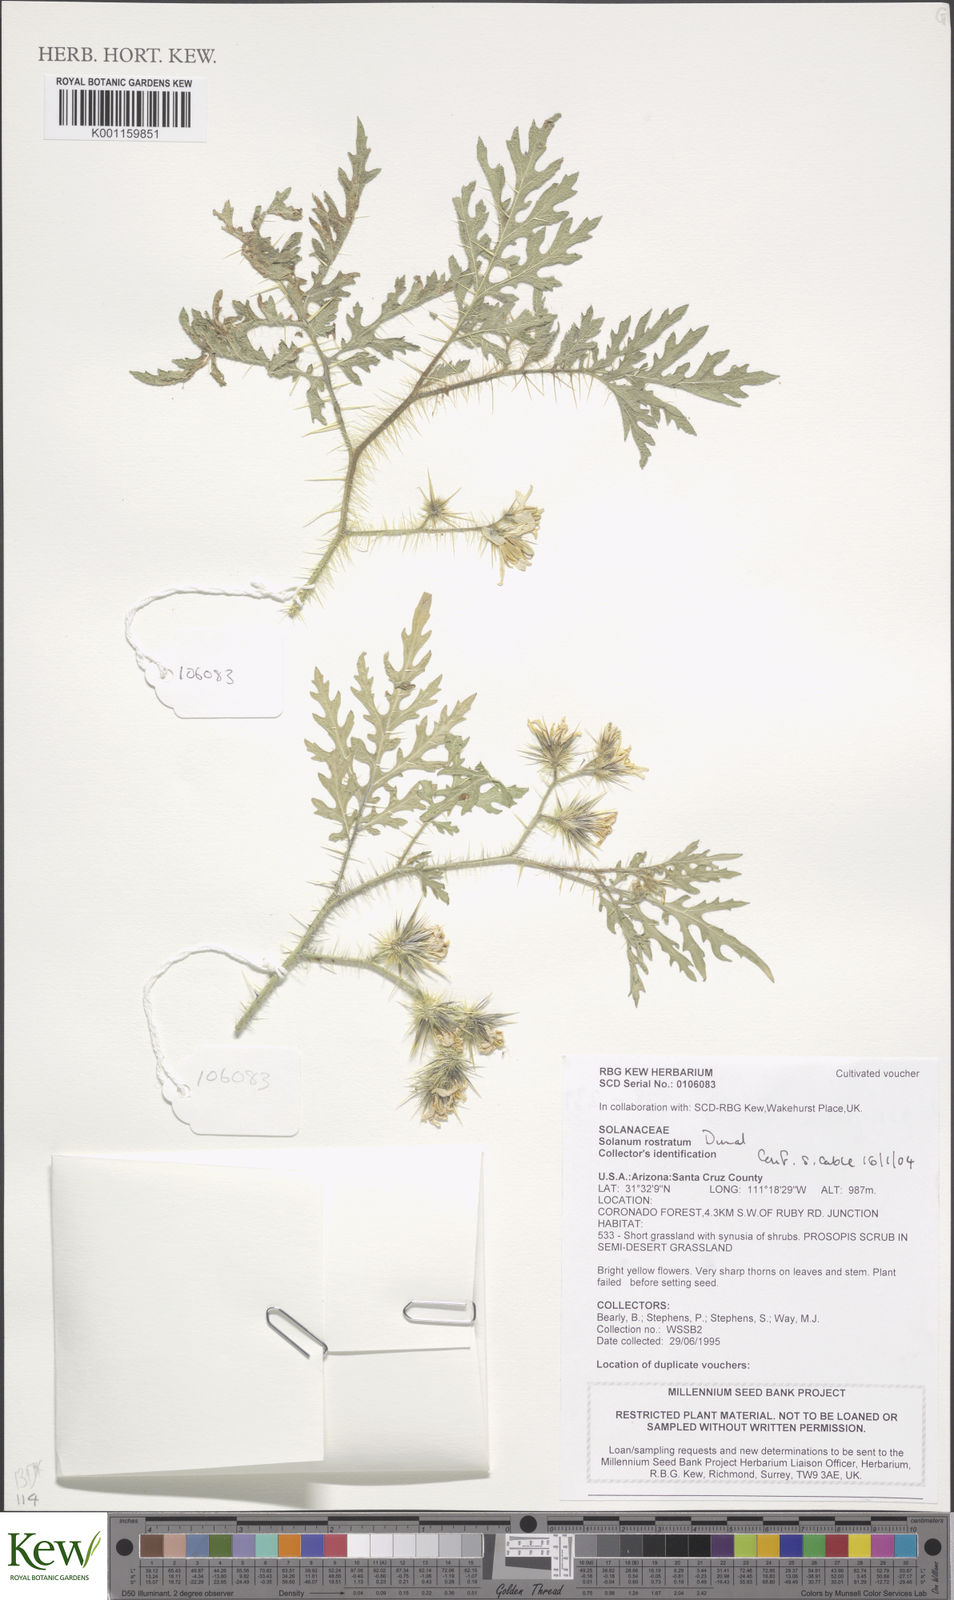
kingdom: Plantae
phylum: Tracheophyta
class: Magnoliopsida
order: Solanales
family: Solanaceae
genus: Solanum
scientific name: Solanum angustifolium
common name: Buffalobur nightshade
